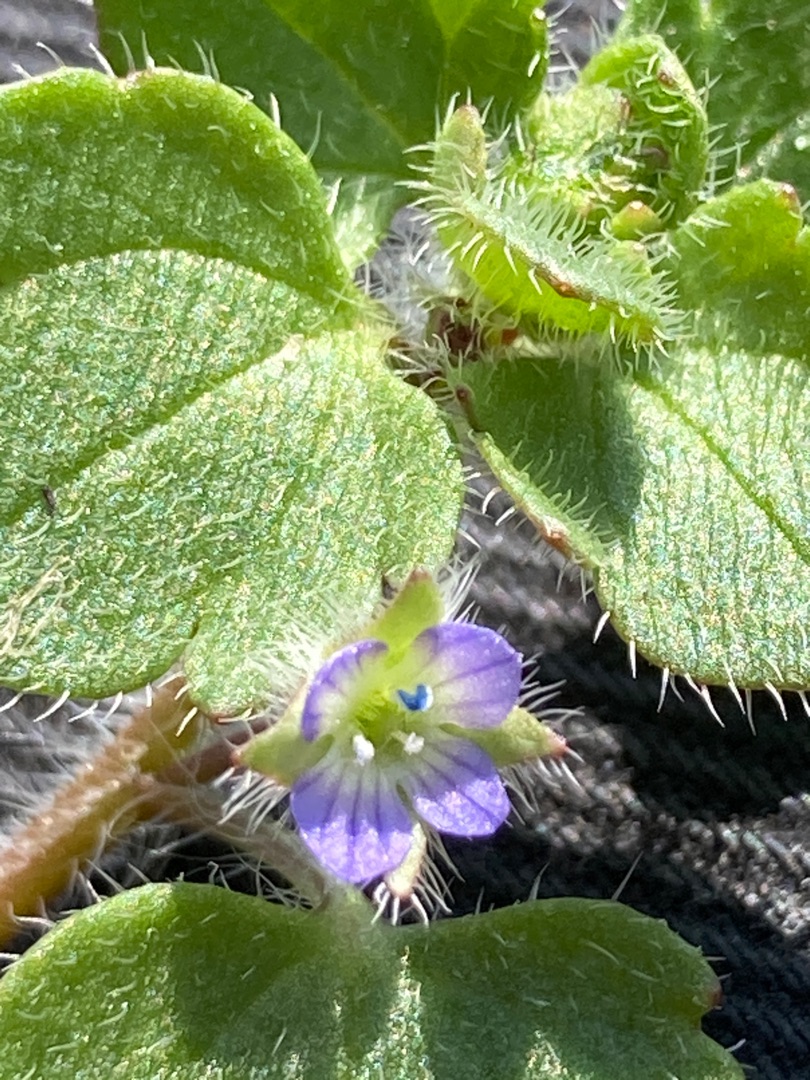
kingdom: Plantae
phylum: Tracheophyta
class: Magnoliopsida
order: Lamiales
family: Plantaginaceae
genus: Veronica
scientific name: Veronica sublobata
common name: Krat-ærenpris
